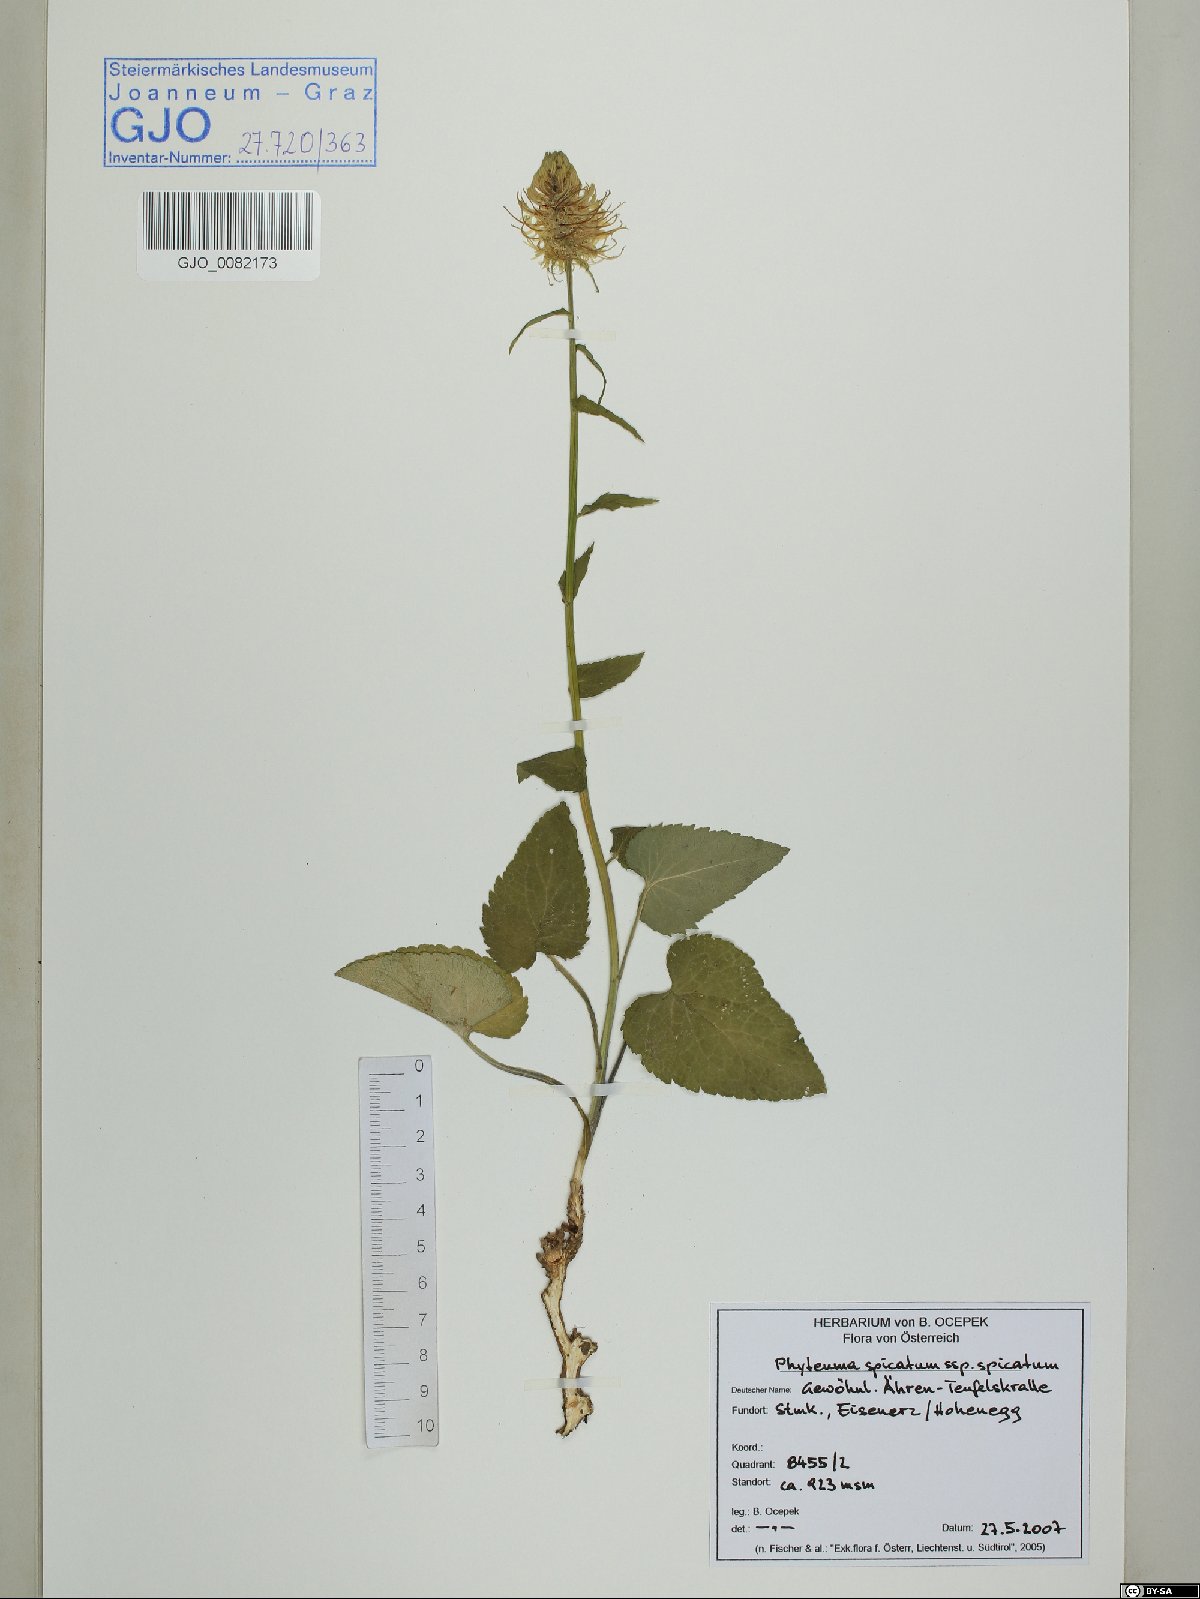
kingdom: Plantae
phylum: Tracheophyta
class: Magnoliopsida
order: Asterales
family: Campanulaceae
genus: Phyteuma
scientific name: Phyteuma spicatum
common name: Spiked rampion
